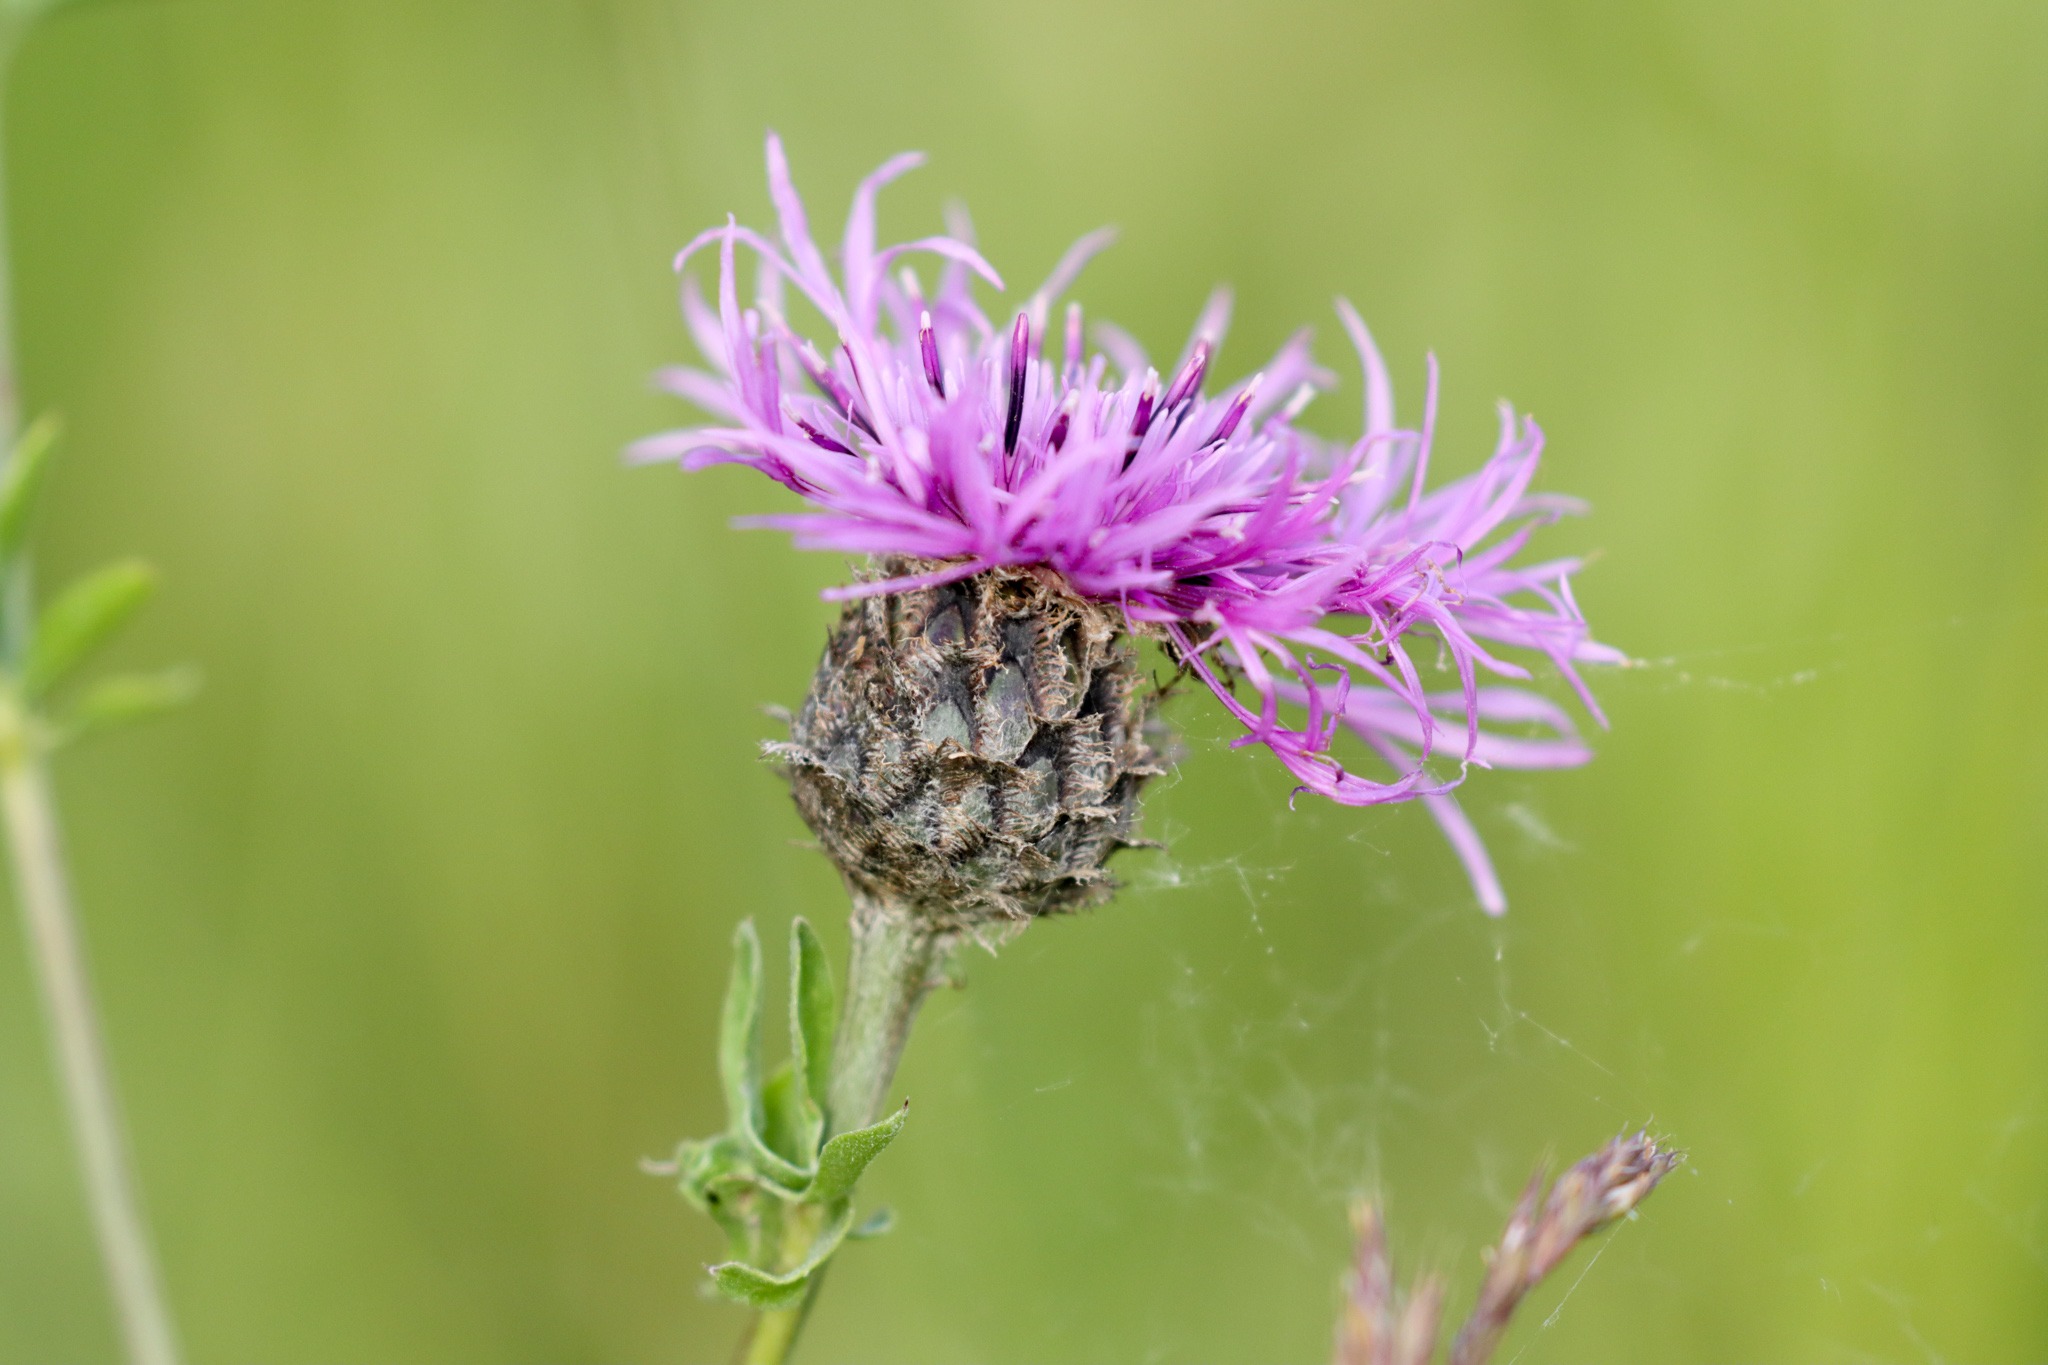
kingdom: Plantae
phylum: Tracheophyta
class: Magnoliopsida
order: Asterales
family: Asteraceae
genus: Centaurea
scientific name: Centaurea scabiosa
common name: Stor knopurt
